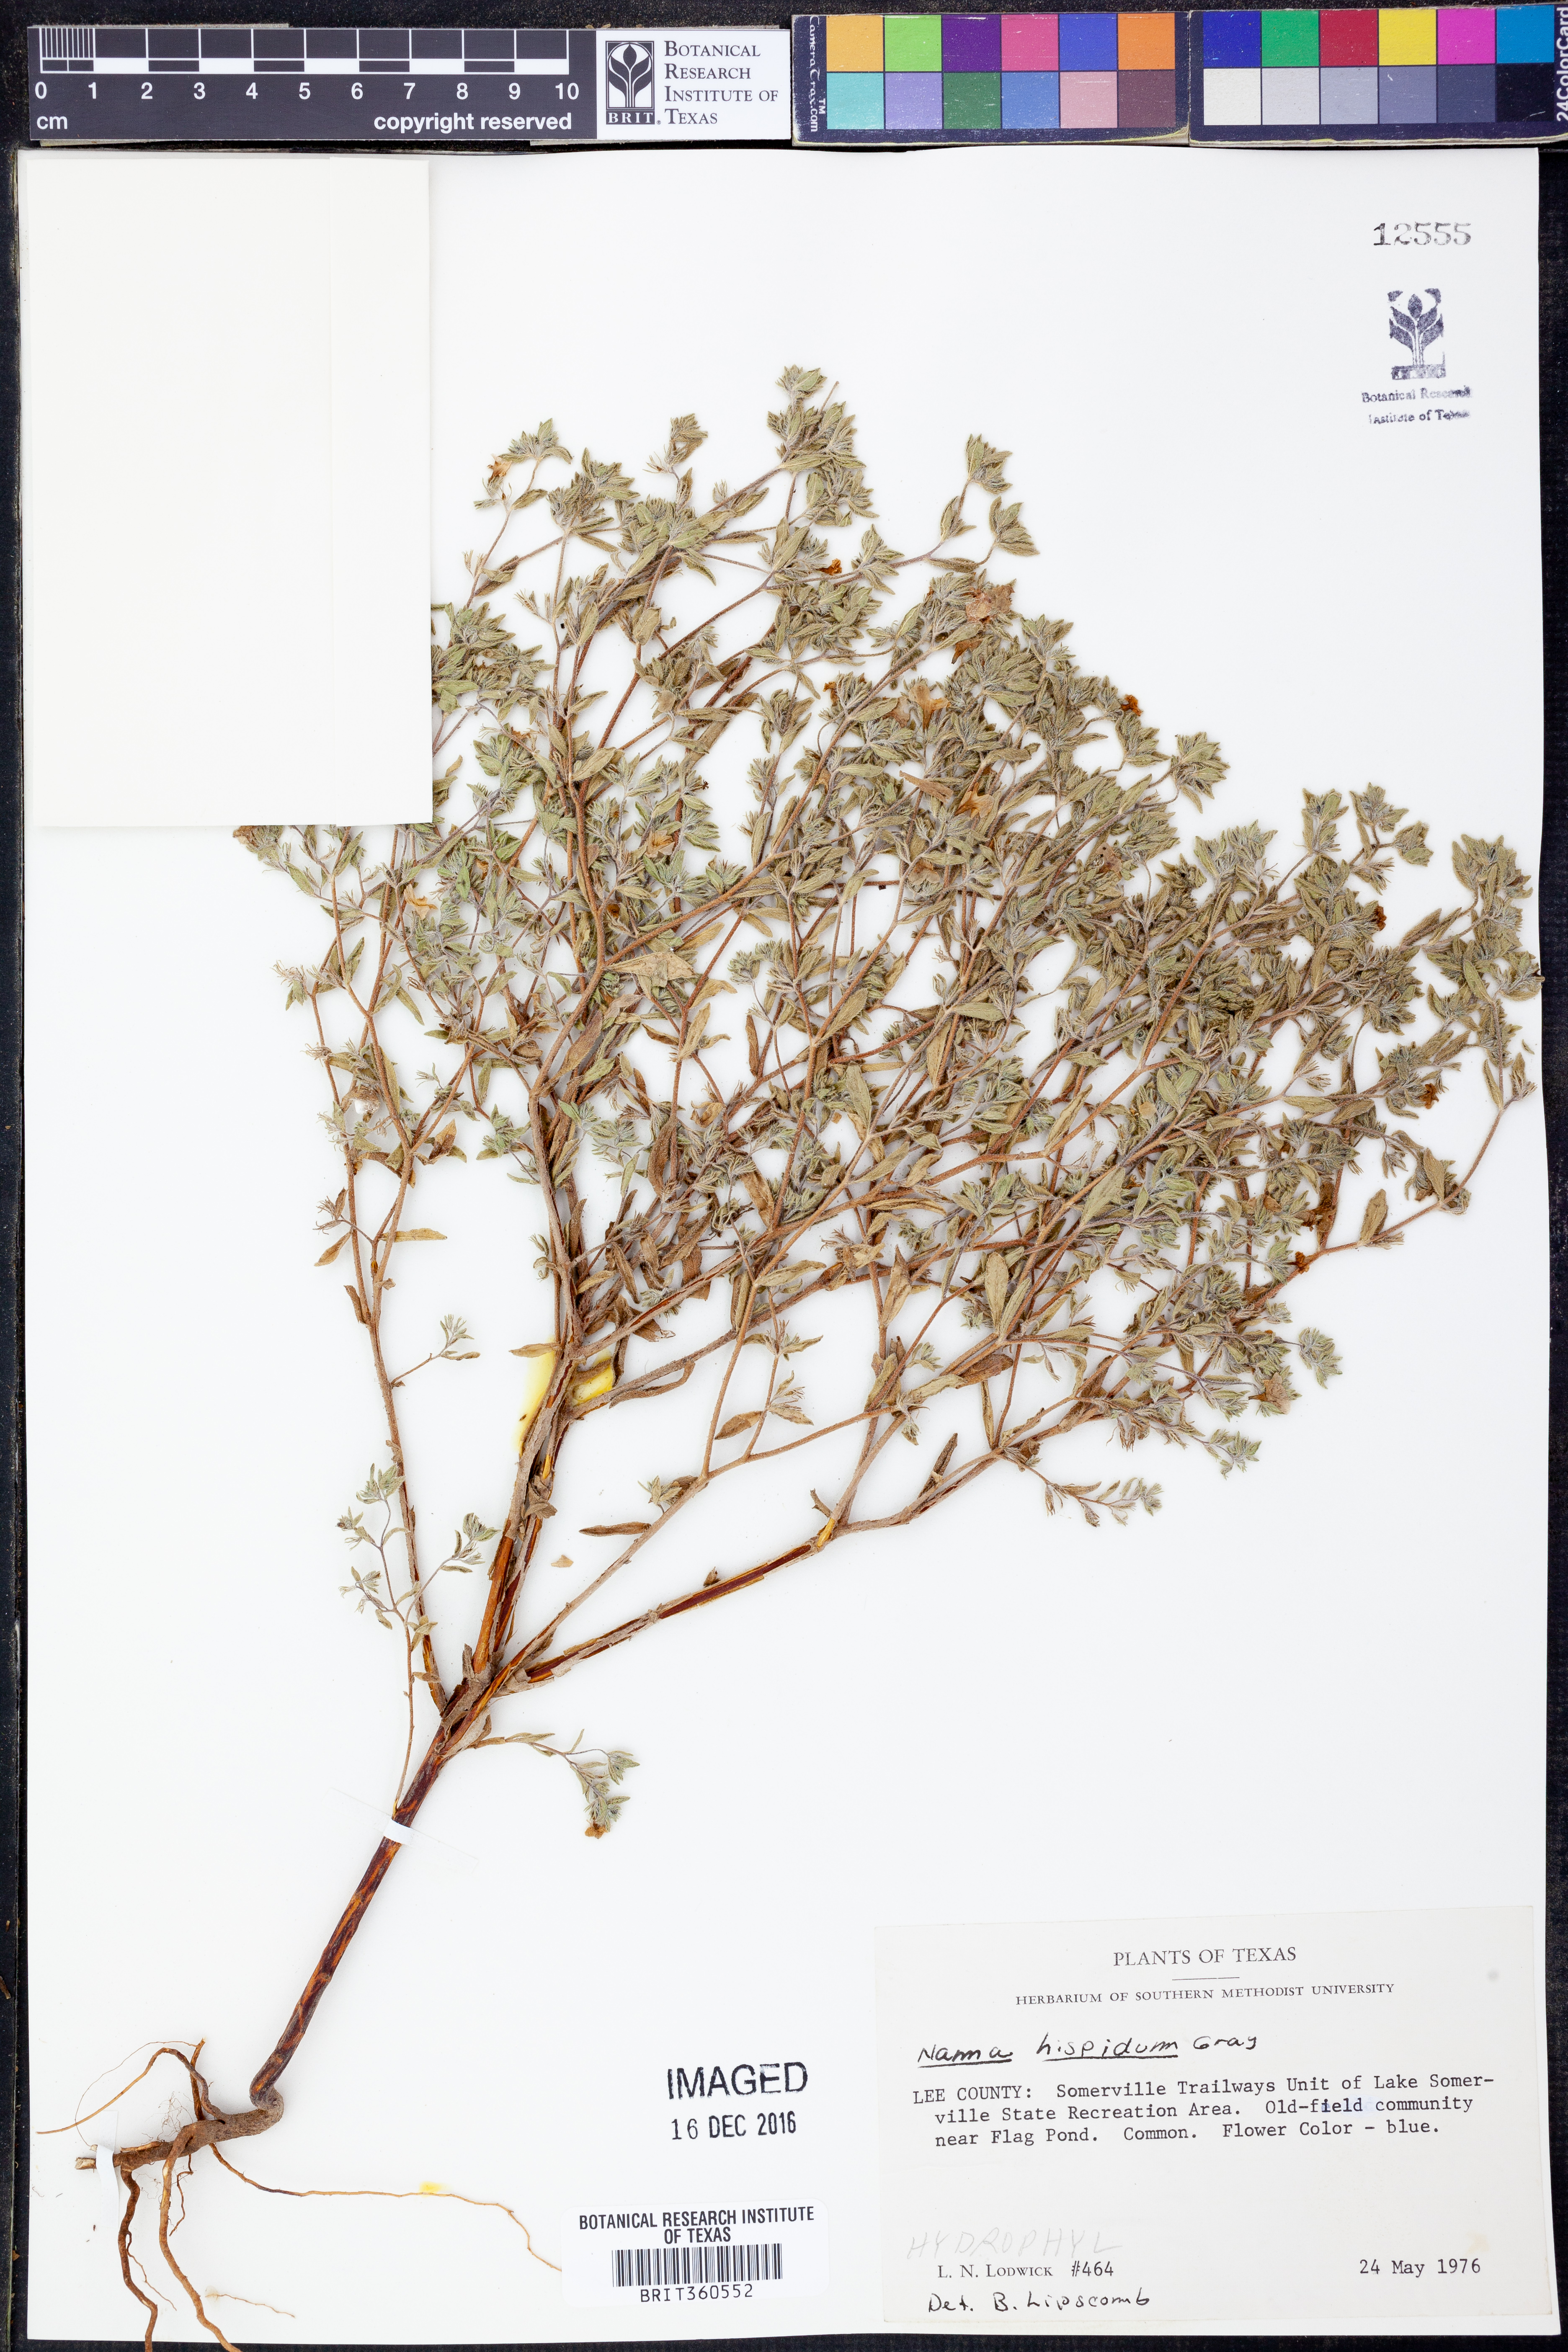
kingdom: Plantae
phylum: Tracheophyta
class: Magnoliopsida
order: Boraginales
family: Namaceae
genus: Nama
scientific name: Nama hispida
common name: Bristly nama
